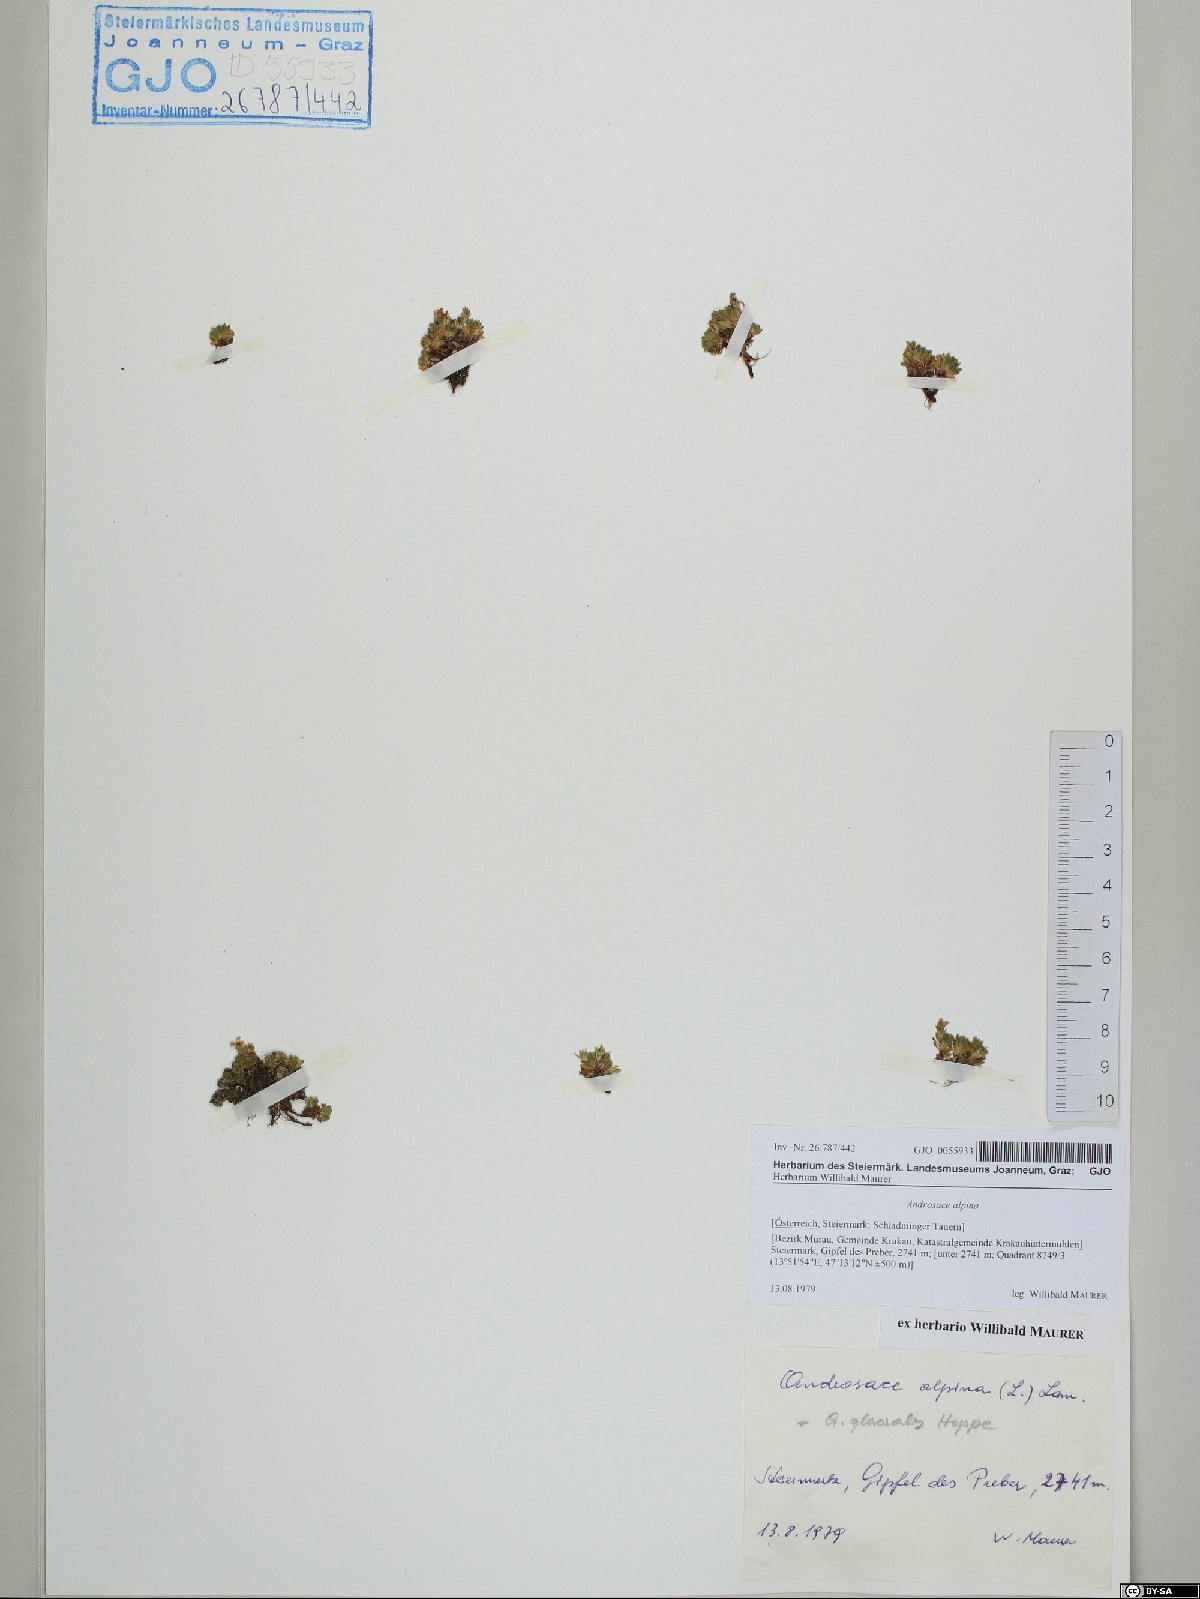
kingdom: Plantae
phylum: Tracheophyta
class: Magnoliopsida
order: Ericales
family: Primulaceae
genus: Androsace
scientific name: Androsace alpina
